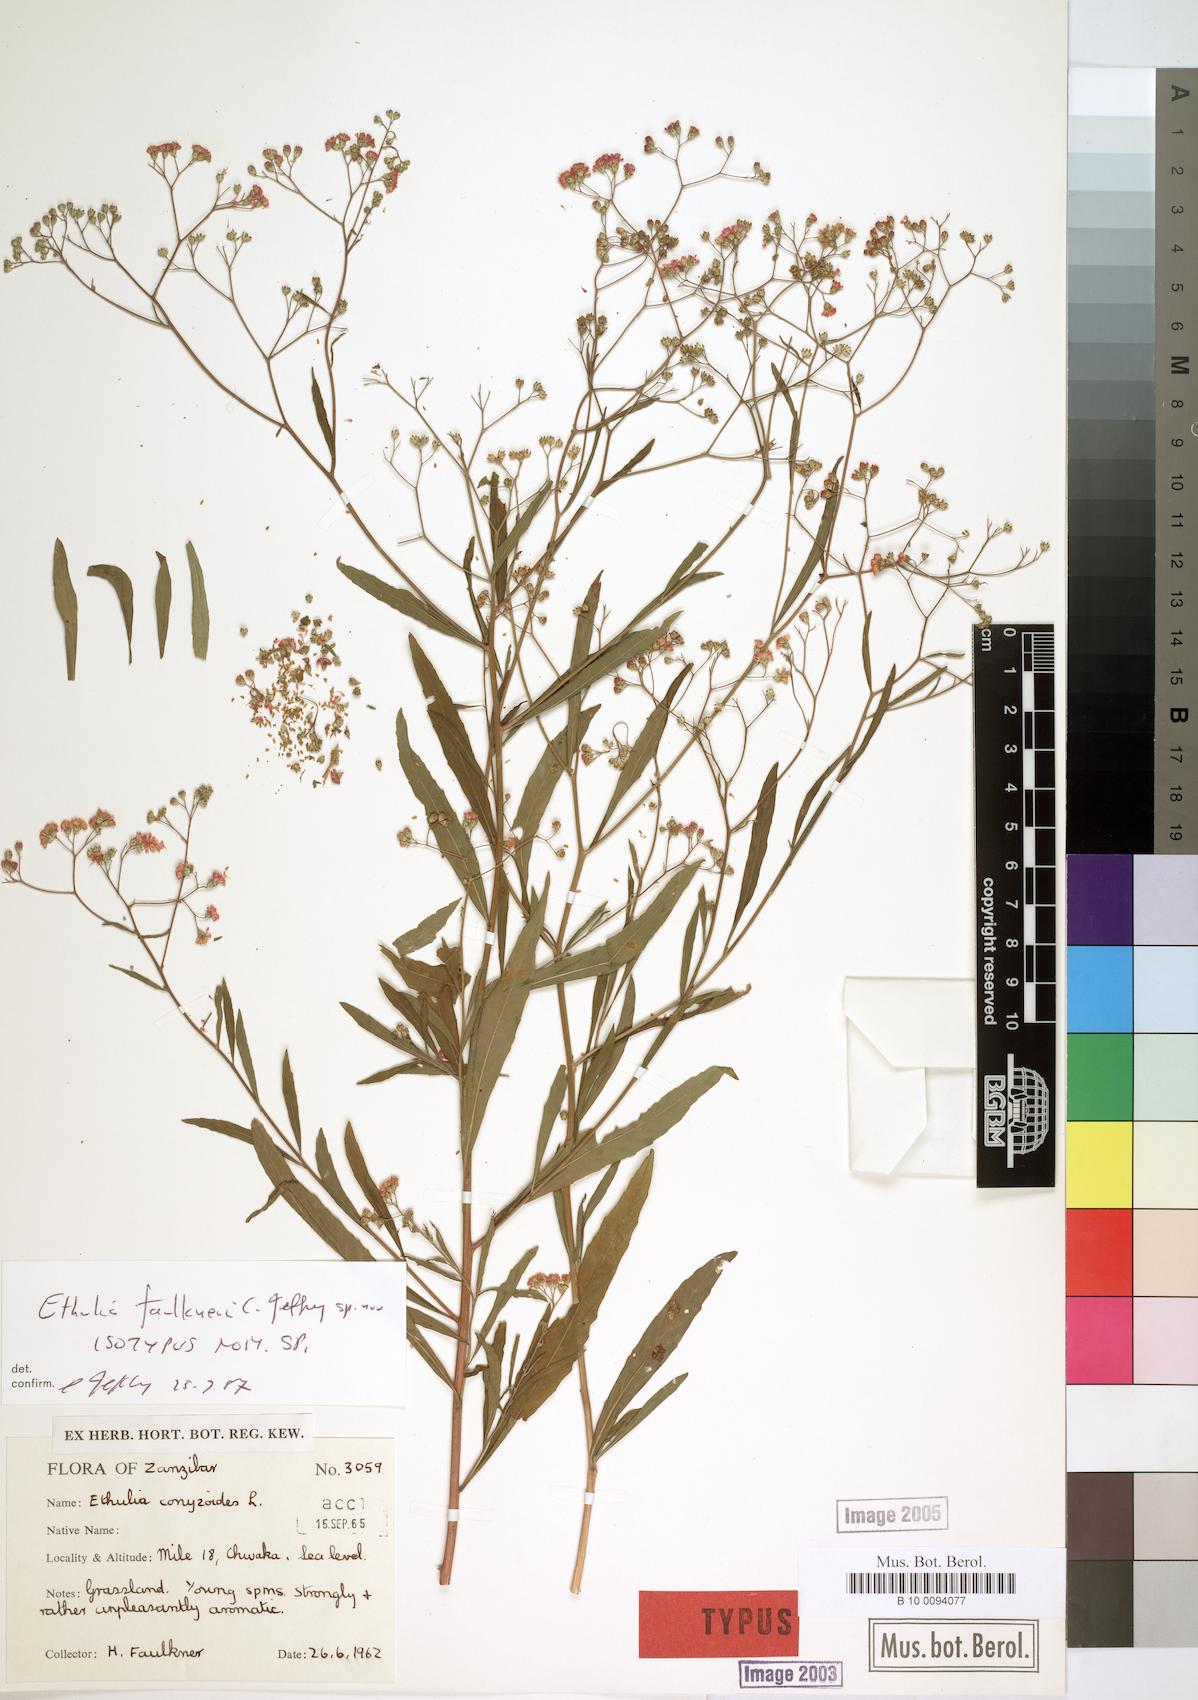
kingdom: Plantae
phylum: Tracheophyta
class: Magnoliopsida
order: Asterales
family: Asteraceae
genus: Ethulia
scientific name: Ethulia faulknerae
